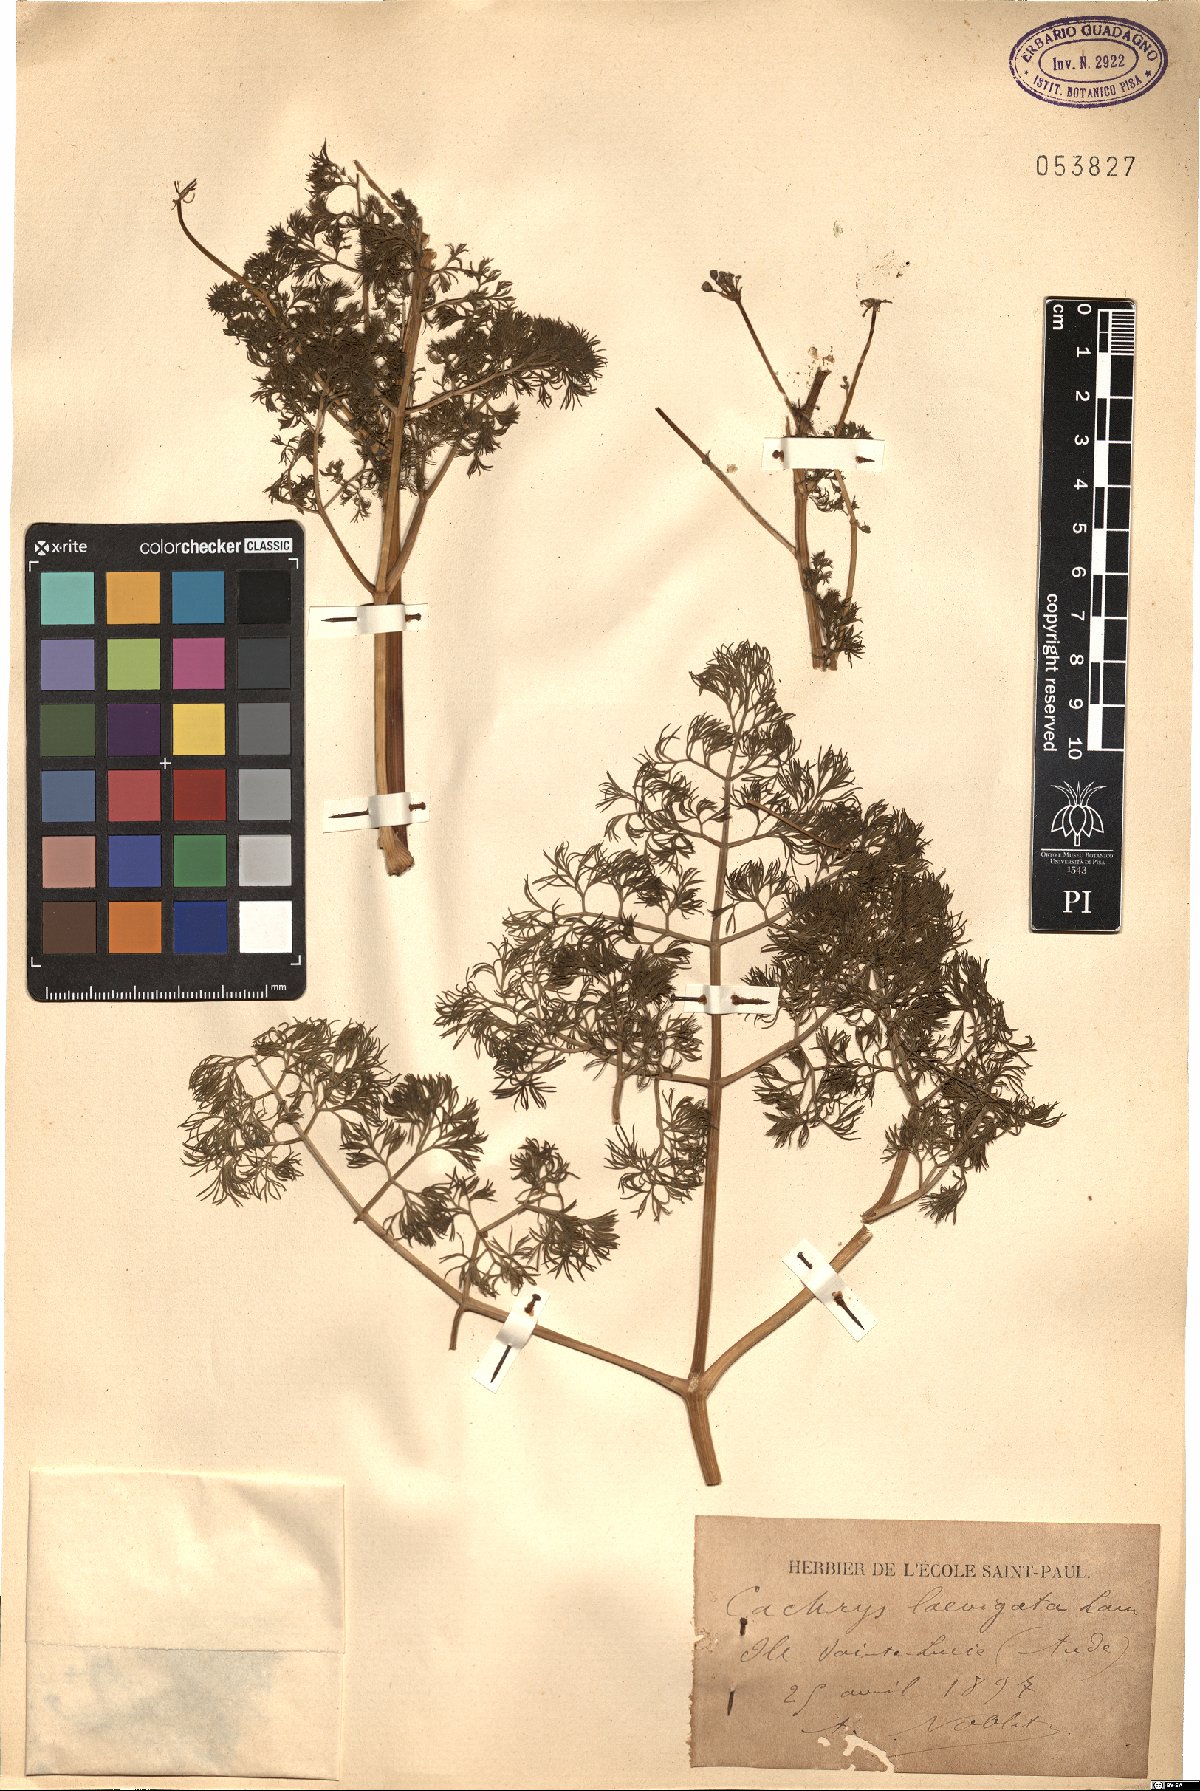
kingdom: Plantae
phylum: Tracheophyta
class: Magnoliopsida
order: Apiales
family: Apiaceae
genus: Prangos
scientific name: Prangos trifida
